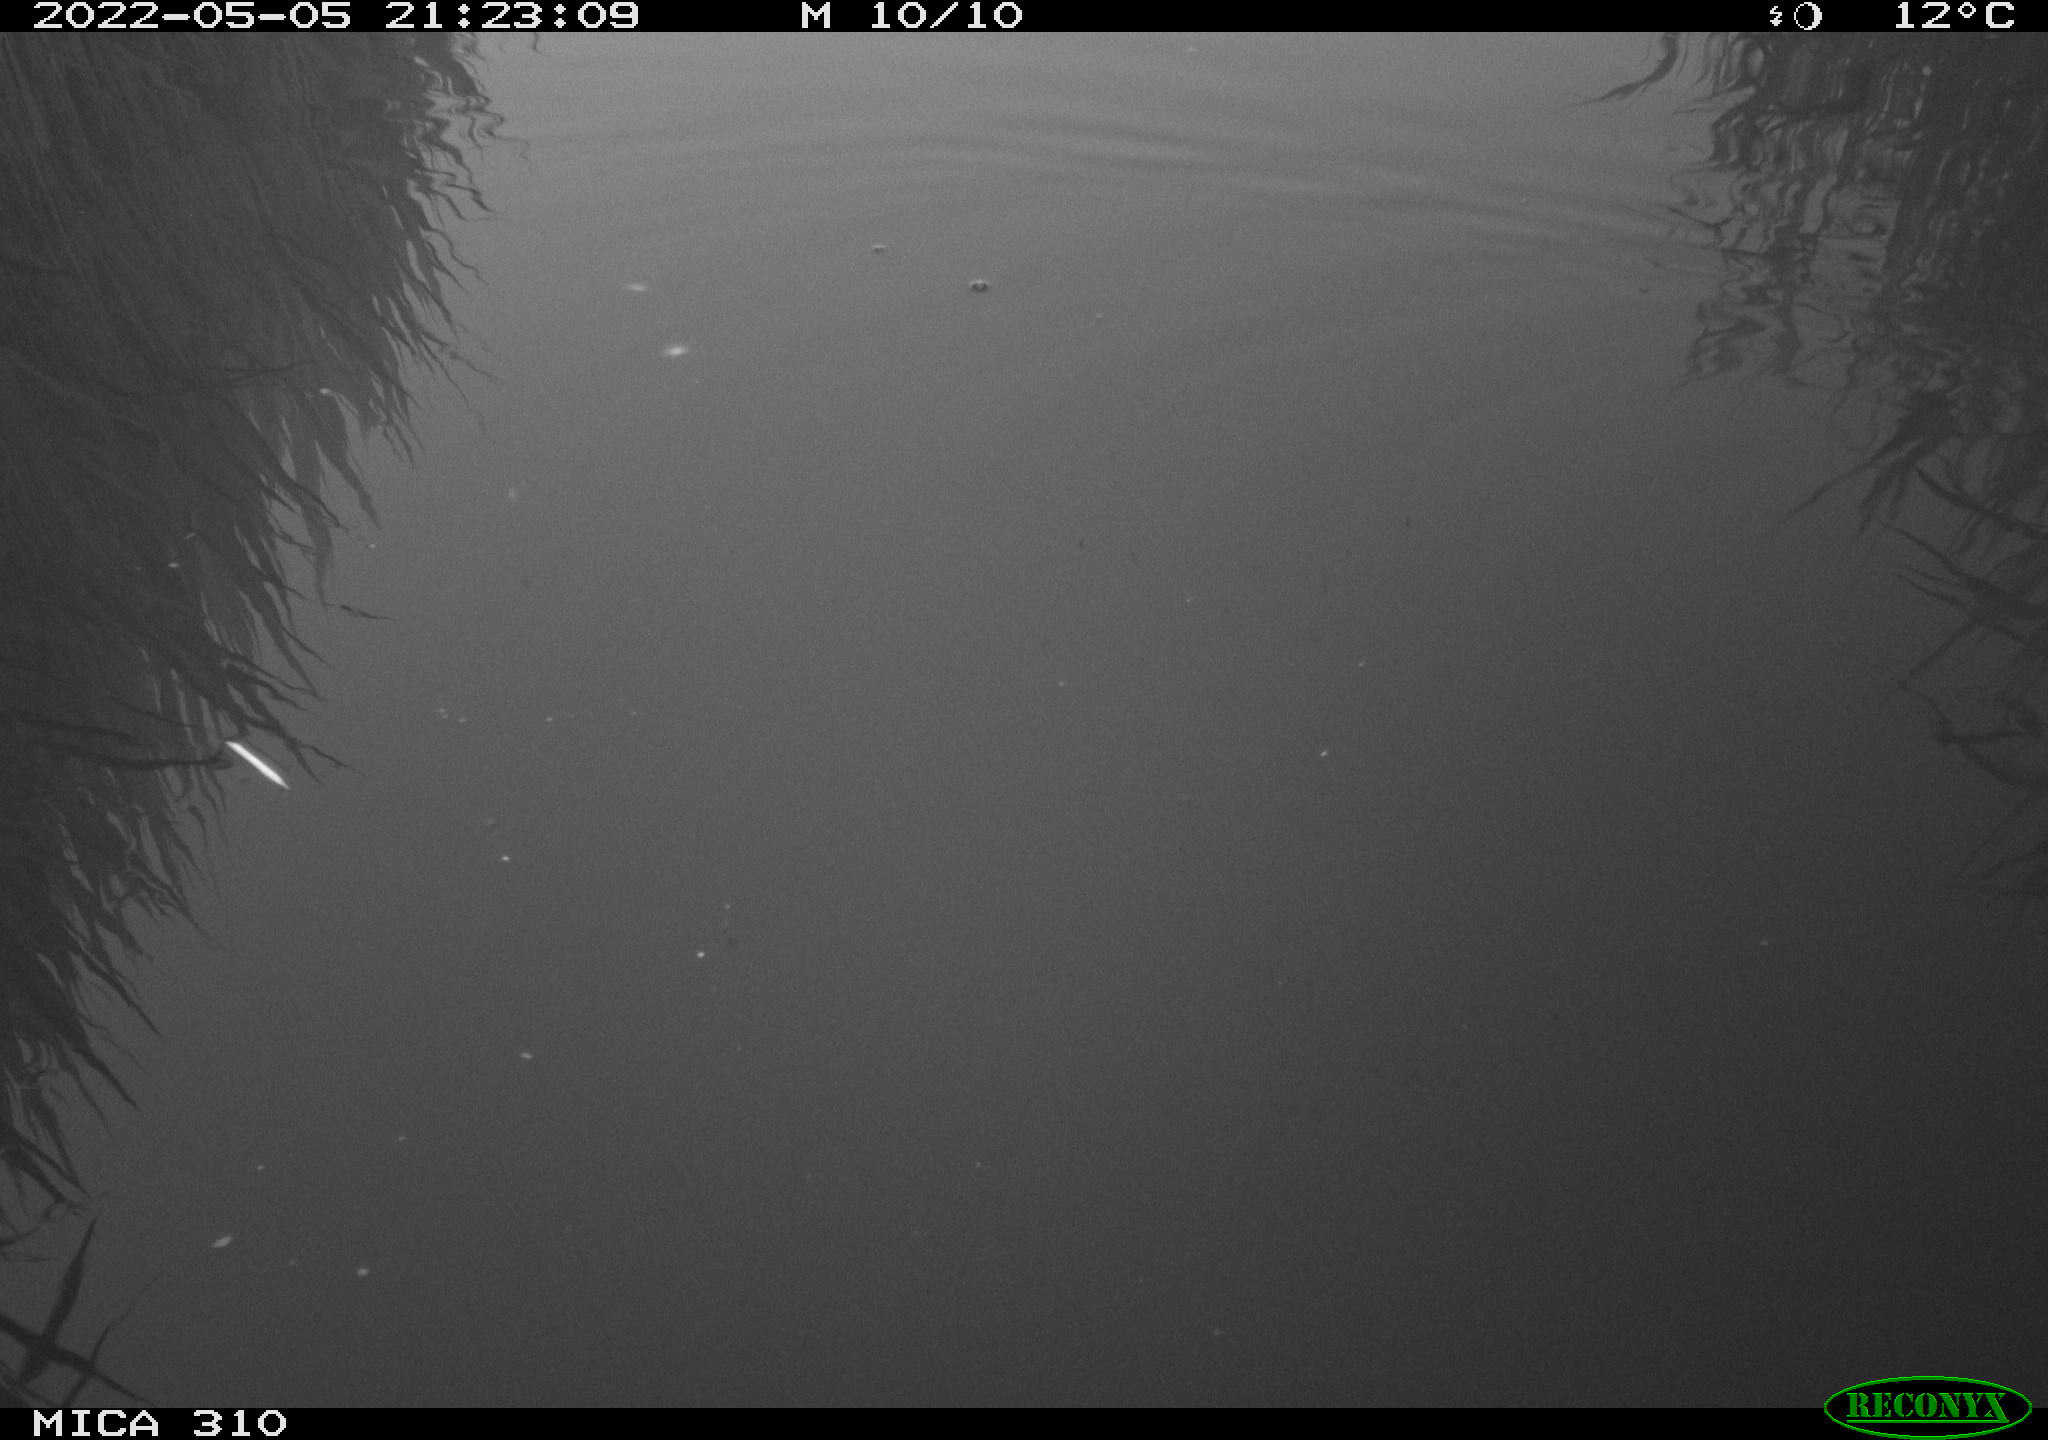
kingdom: Animalia
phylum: Chordata
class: Aves
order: Gruiformes
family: Rallidae
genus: Gallinula
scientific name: Gallinula chloropus
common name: Common moorhen
